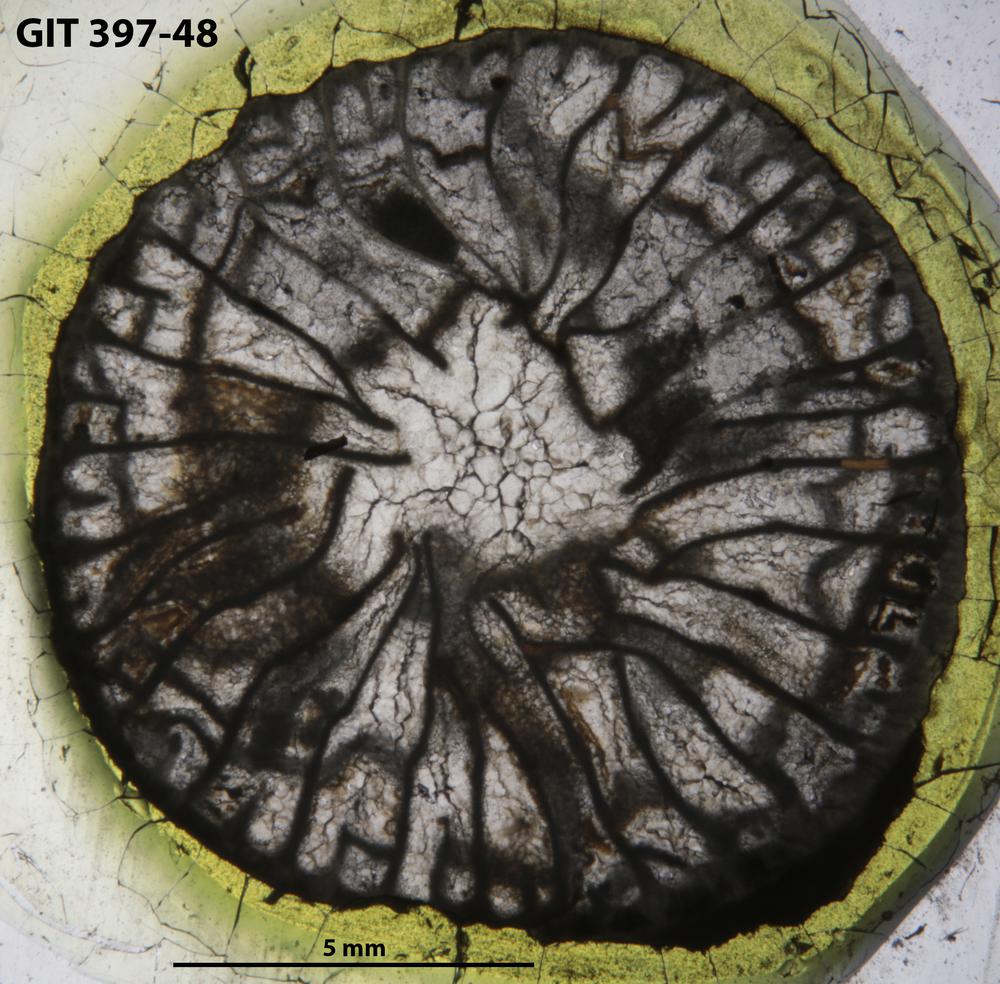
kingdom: Animalia
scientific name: Animalia
